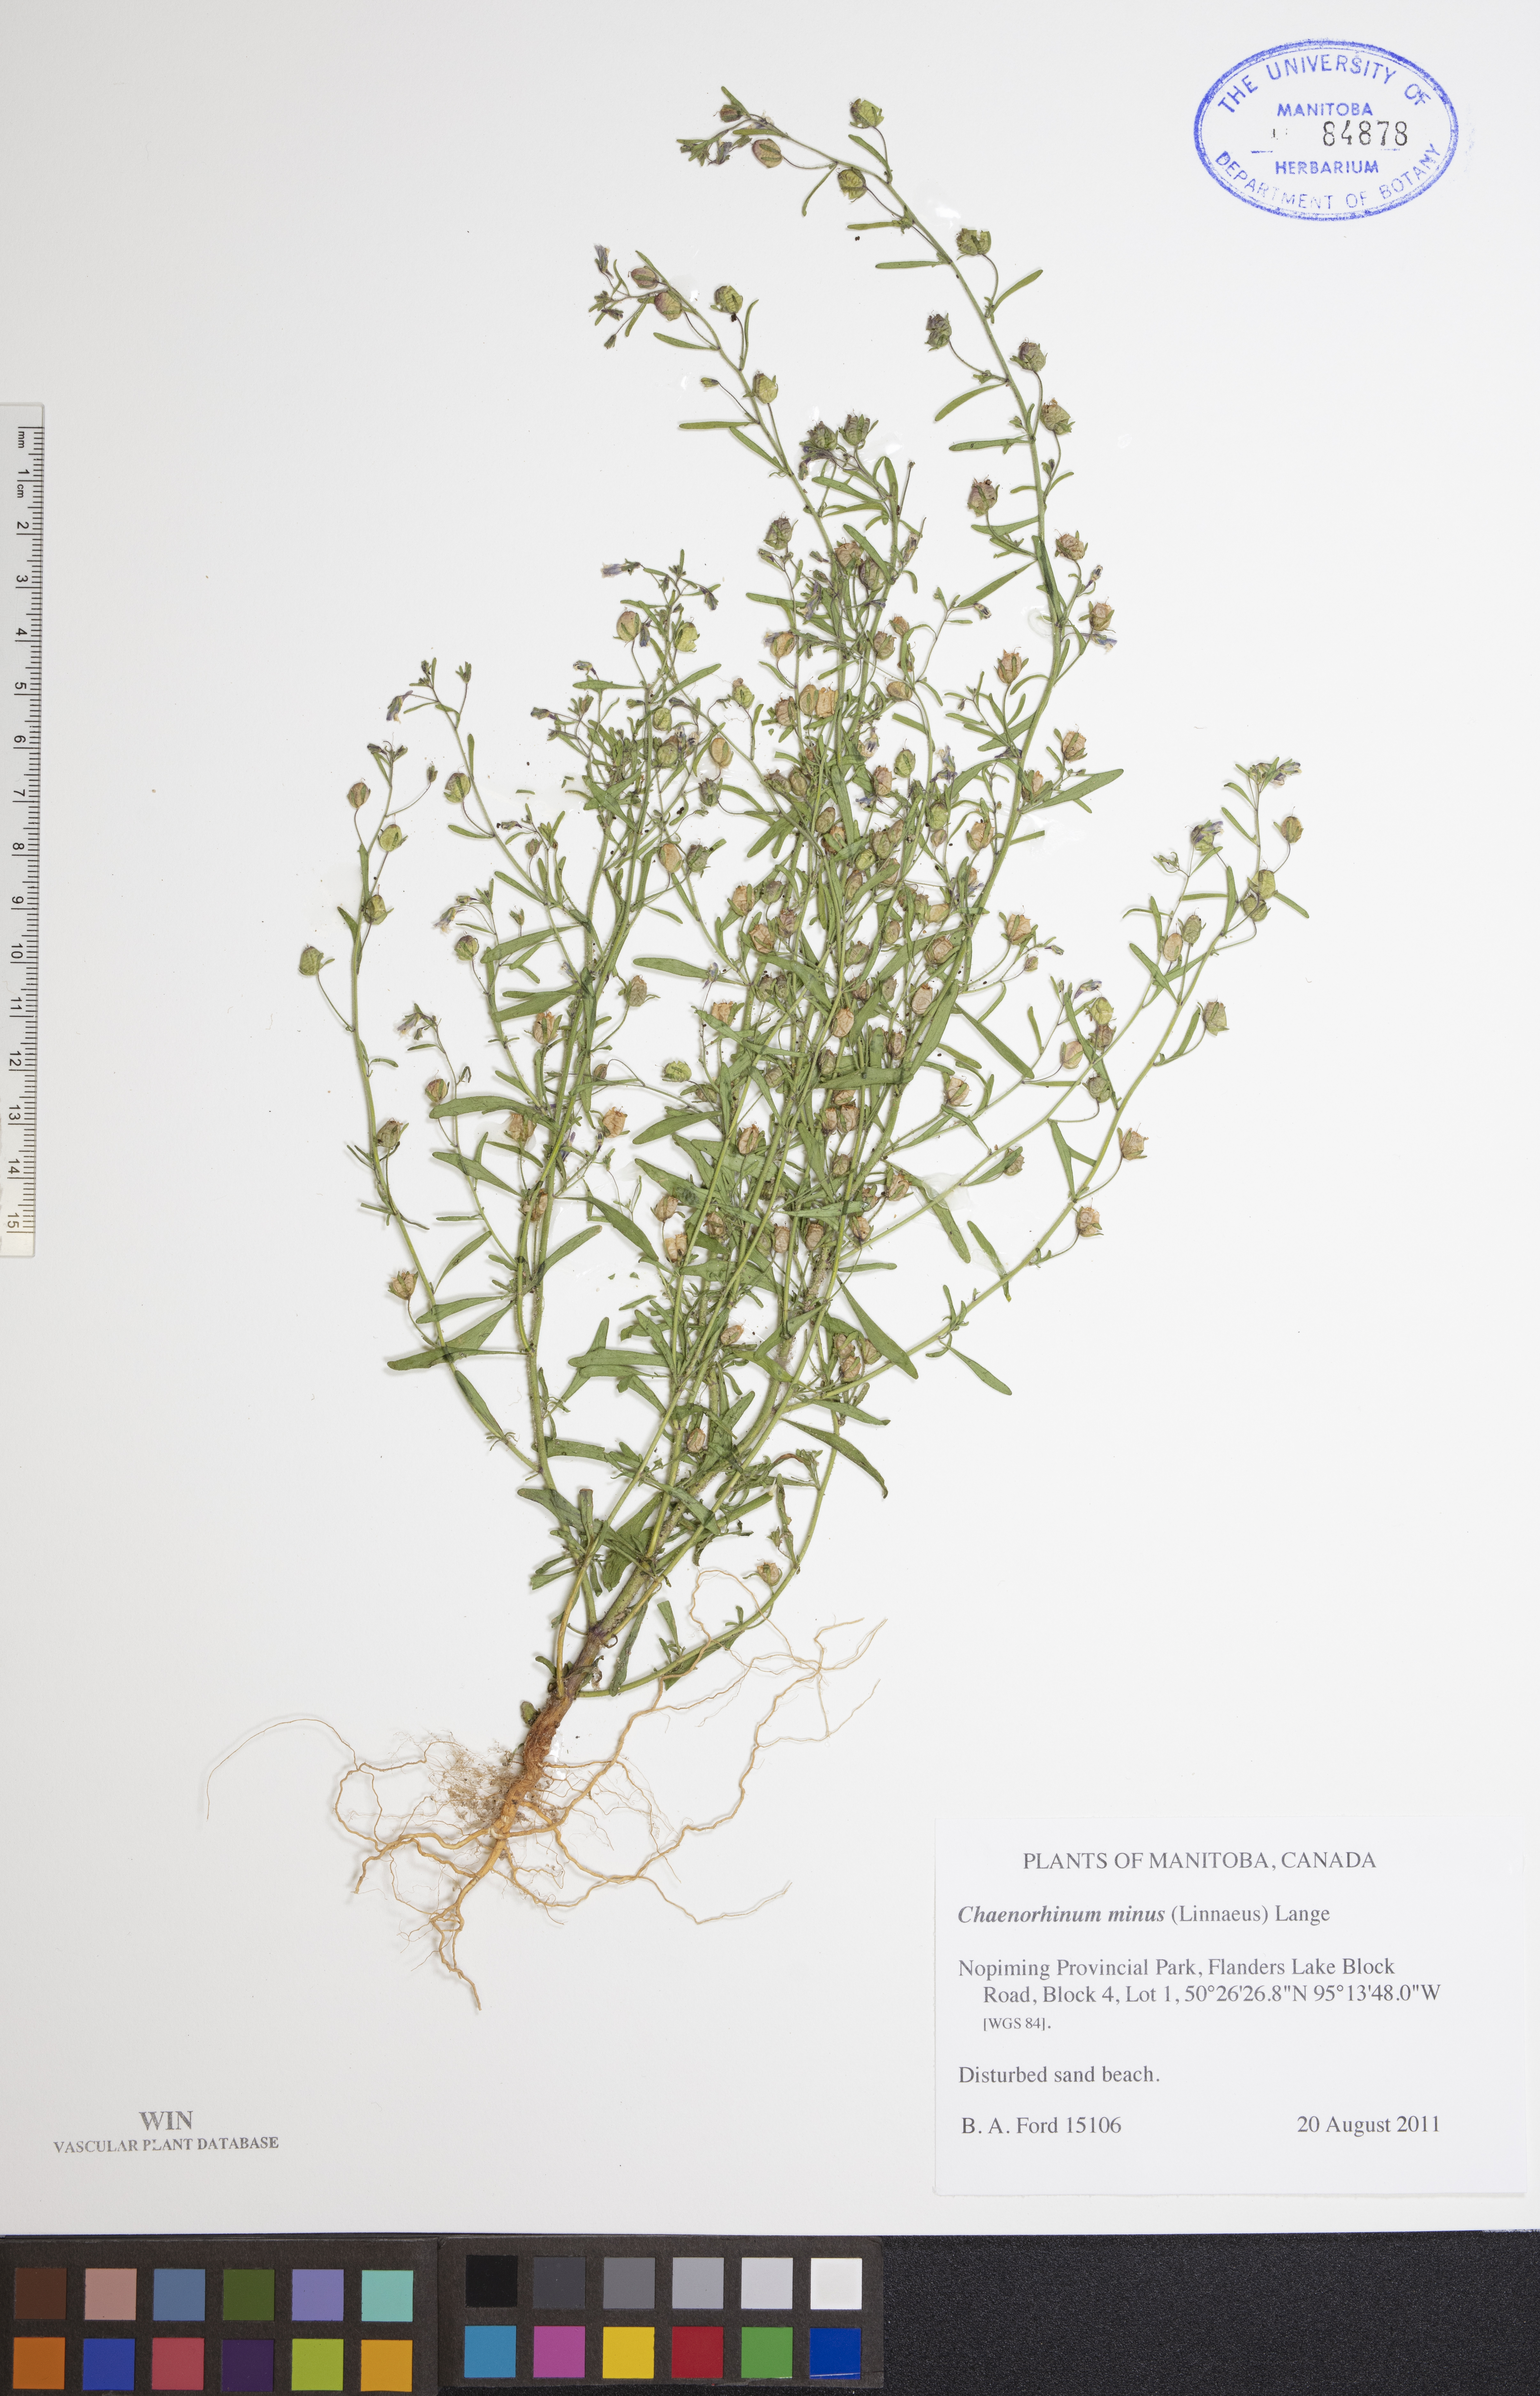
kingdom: Plantae
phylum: Tracheophyta
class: Magnoliopsida
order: Lamiales
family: Plantaginaceae
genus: Chaenorhinum
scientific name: Chaenorhinum minus
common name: Dwarf snapdragon
